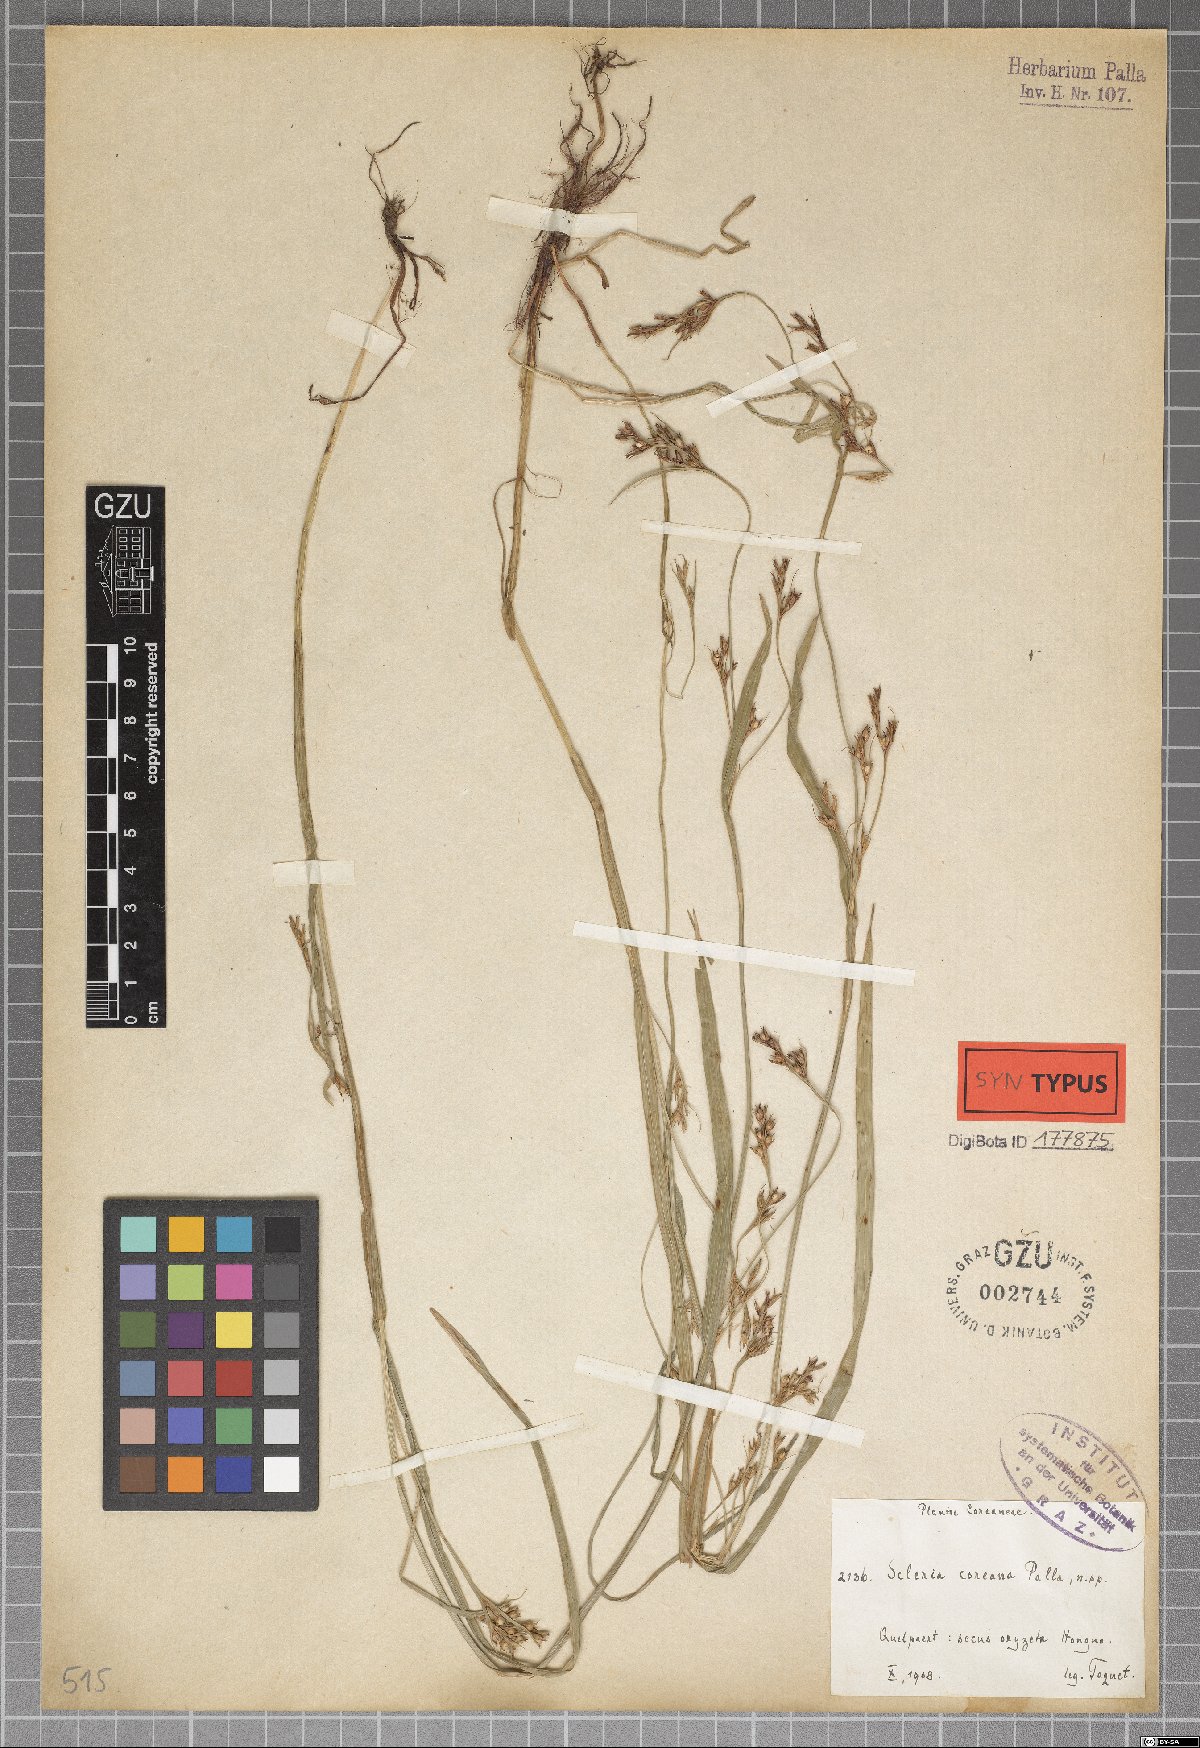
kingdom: Plantae
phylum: Tracheophyta
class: Liliopsida
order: Poales
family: Cyperaceae
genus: Scleria
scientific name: Scleria parvula
